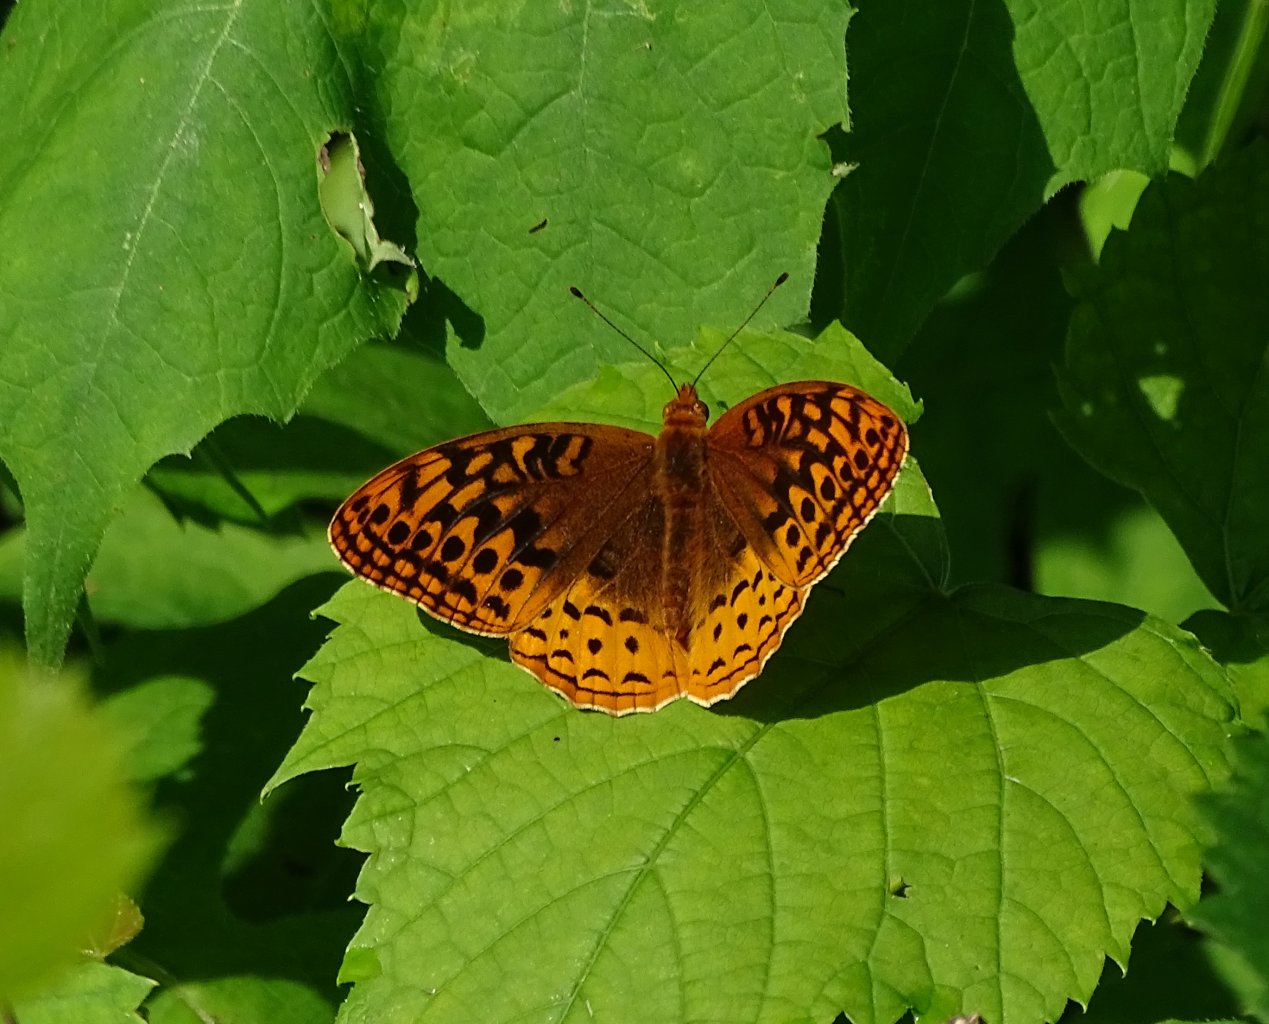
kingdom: Animalia
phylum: Arthropoda
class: Insecta
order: Lepidoptera
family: Nymphalidae
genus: Speyeria
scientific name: Speyeria cybele
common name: Great Spangled Fritillary
